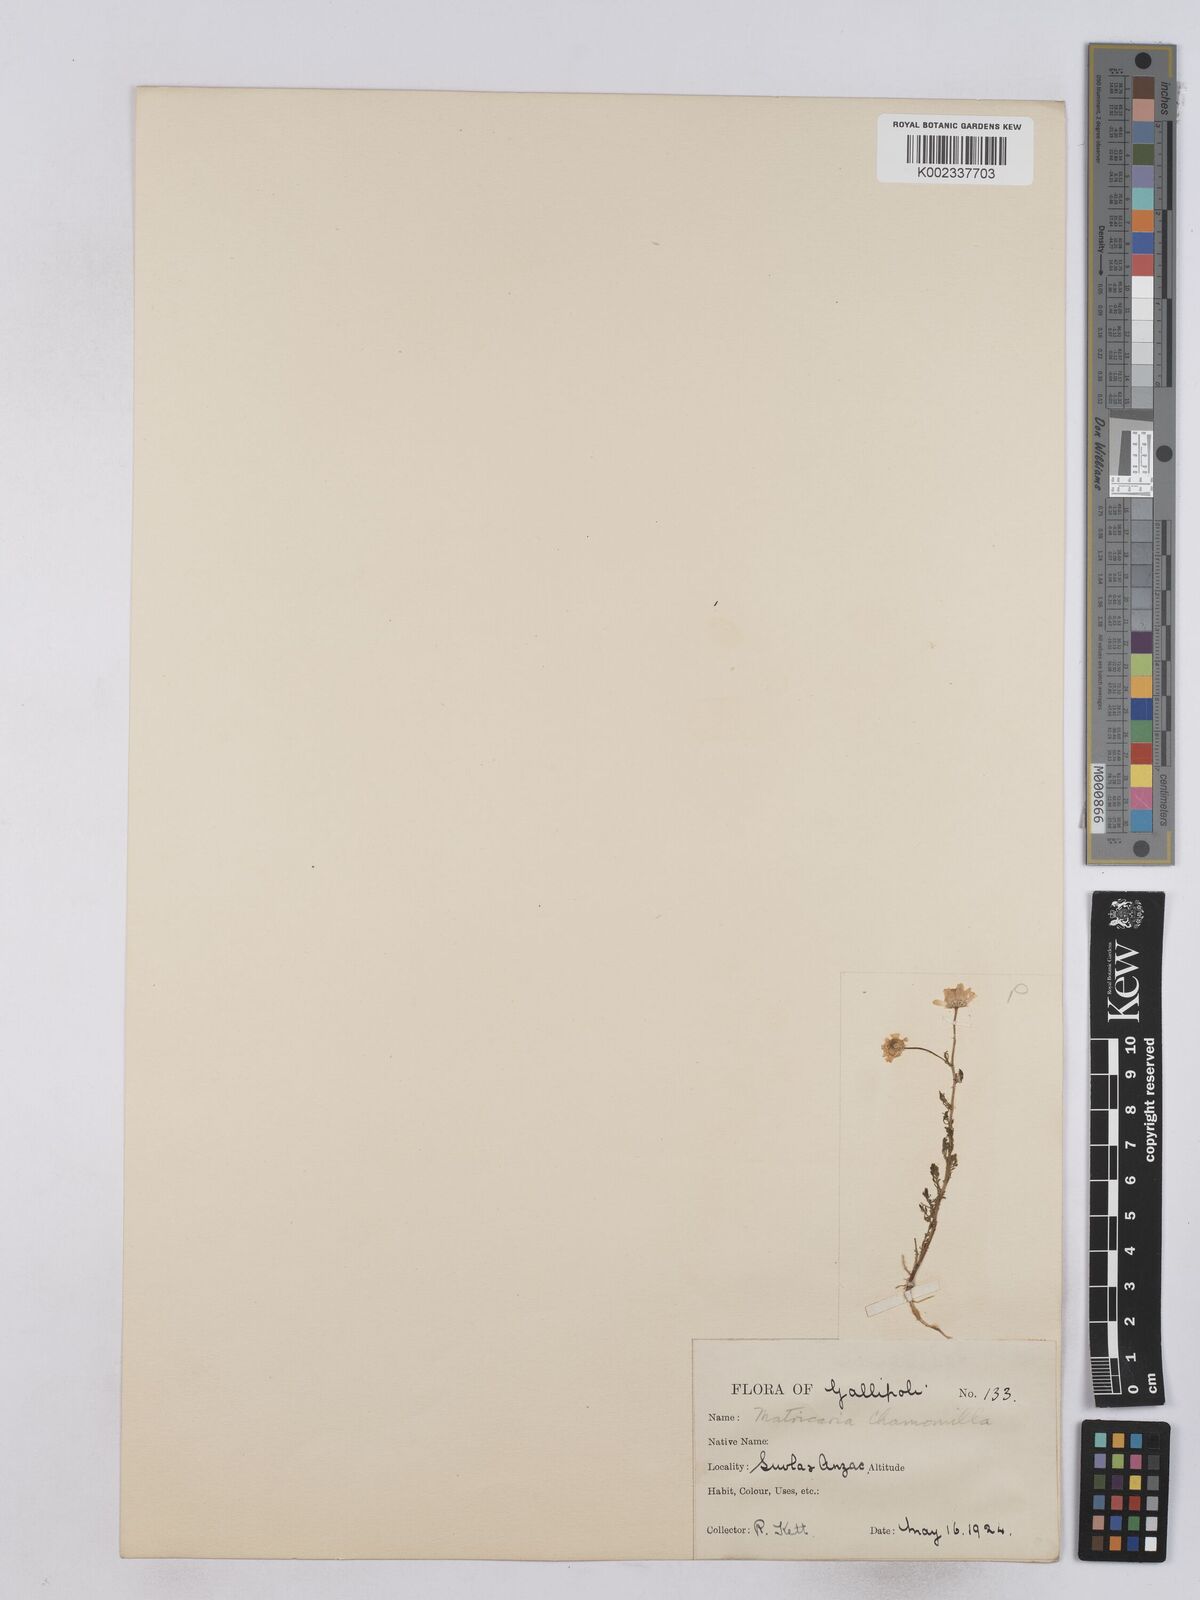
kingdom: Plantae
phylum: Tracheophyta
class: Magnoliopsida
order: Asterales
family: Asteraceae
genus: Matricaria
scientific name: Matricaria chamomilla
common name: Scented mayweed
